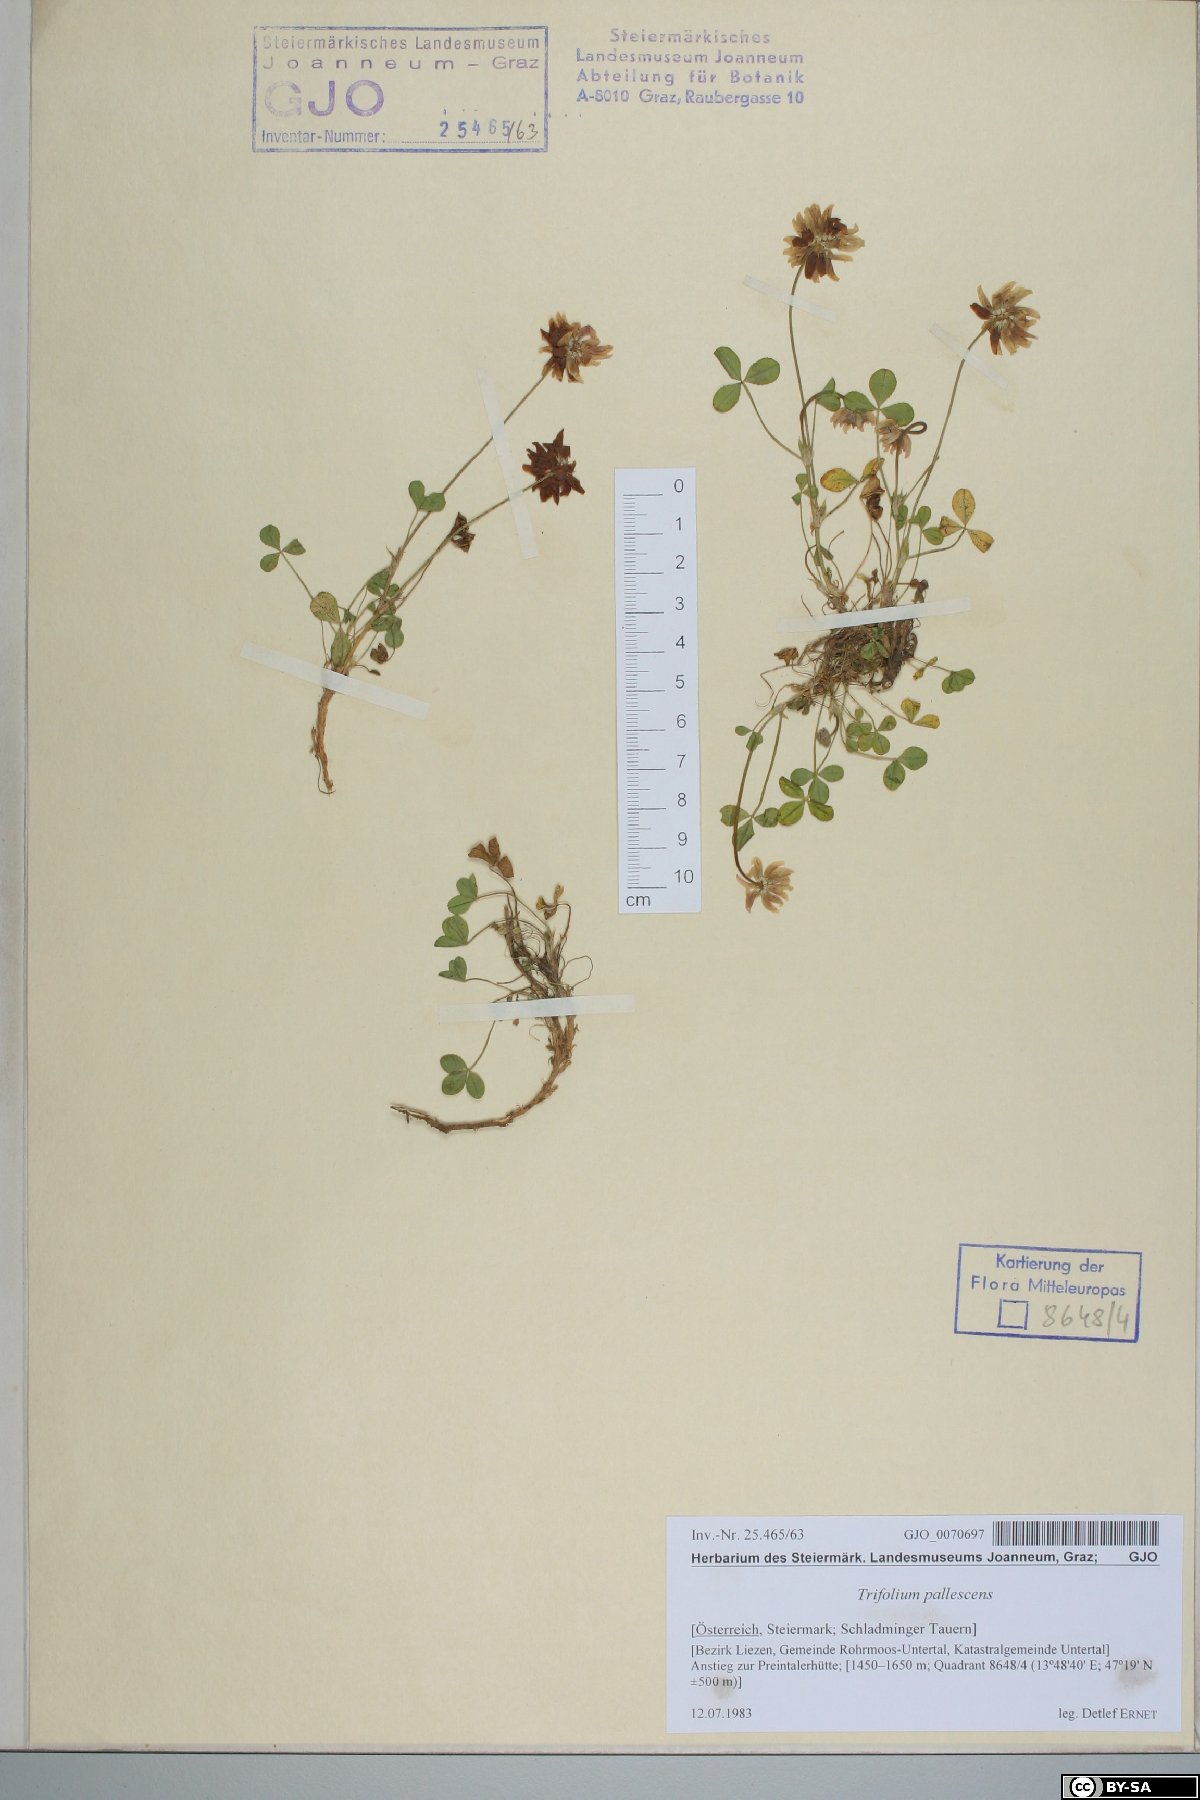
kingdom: Plantae
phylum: Tracheophyta
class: Magnoliopsida
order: Fabales
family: Fabaceae
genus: Trifolium
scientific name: Trifolium pallescens
